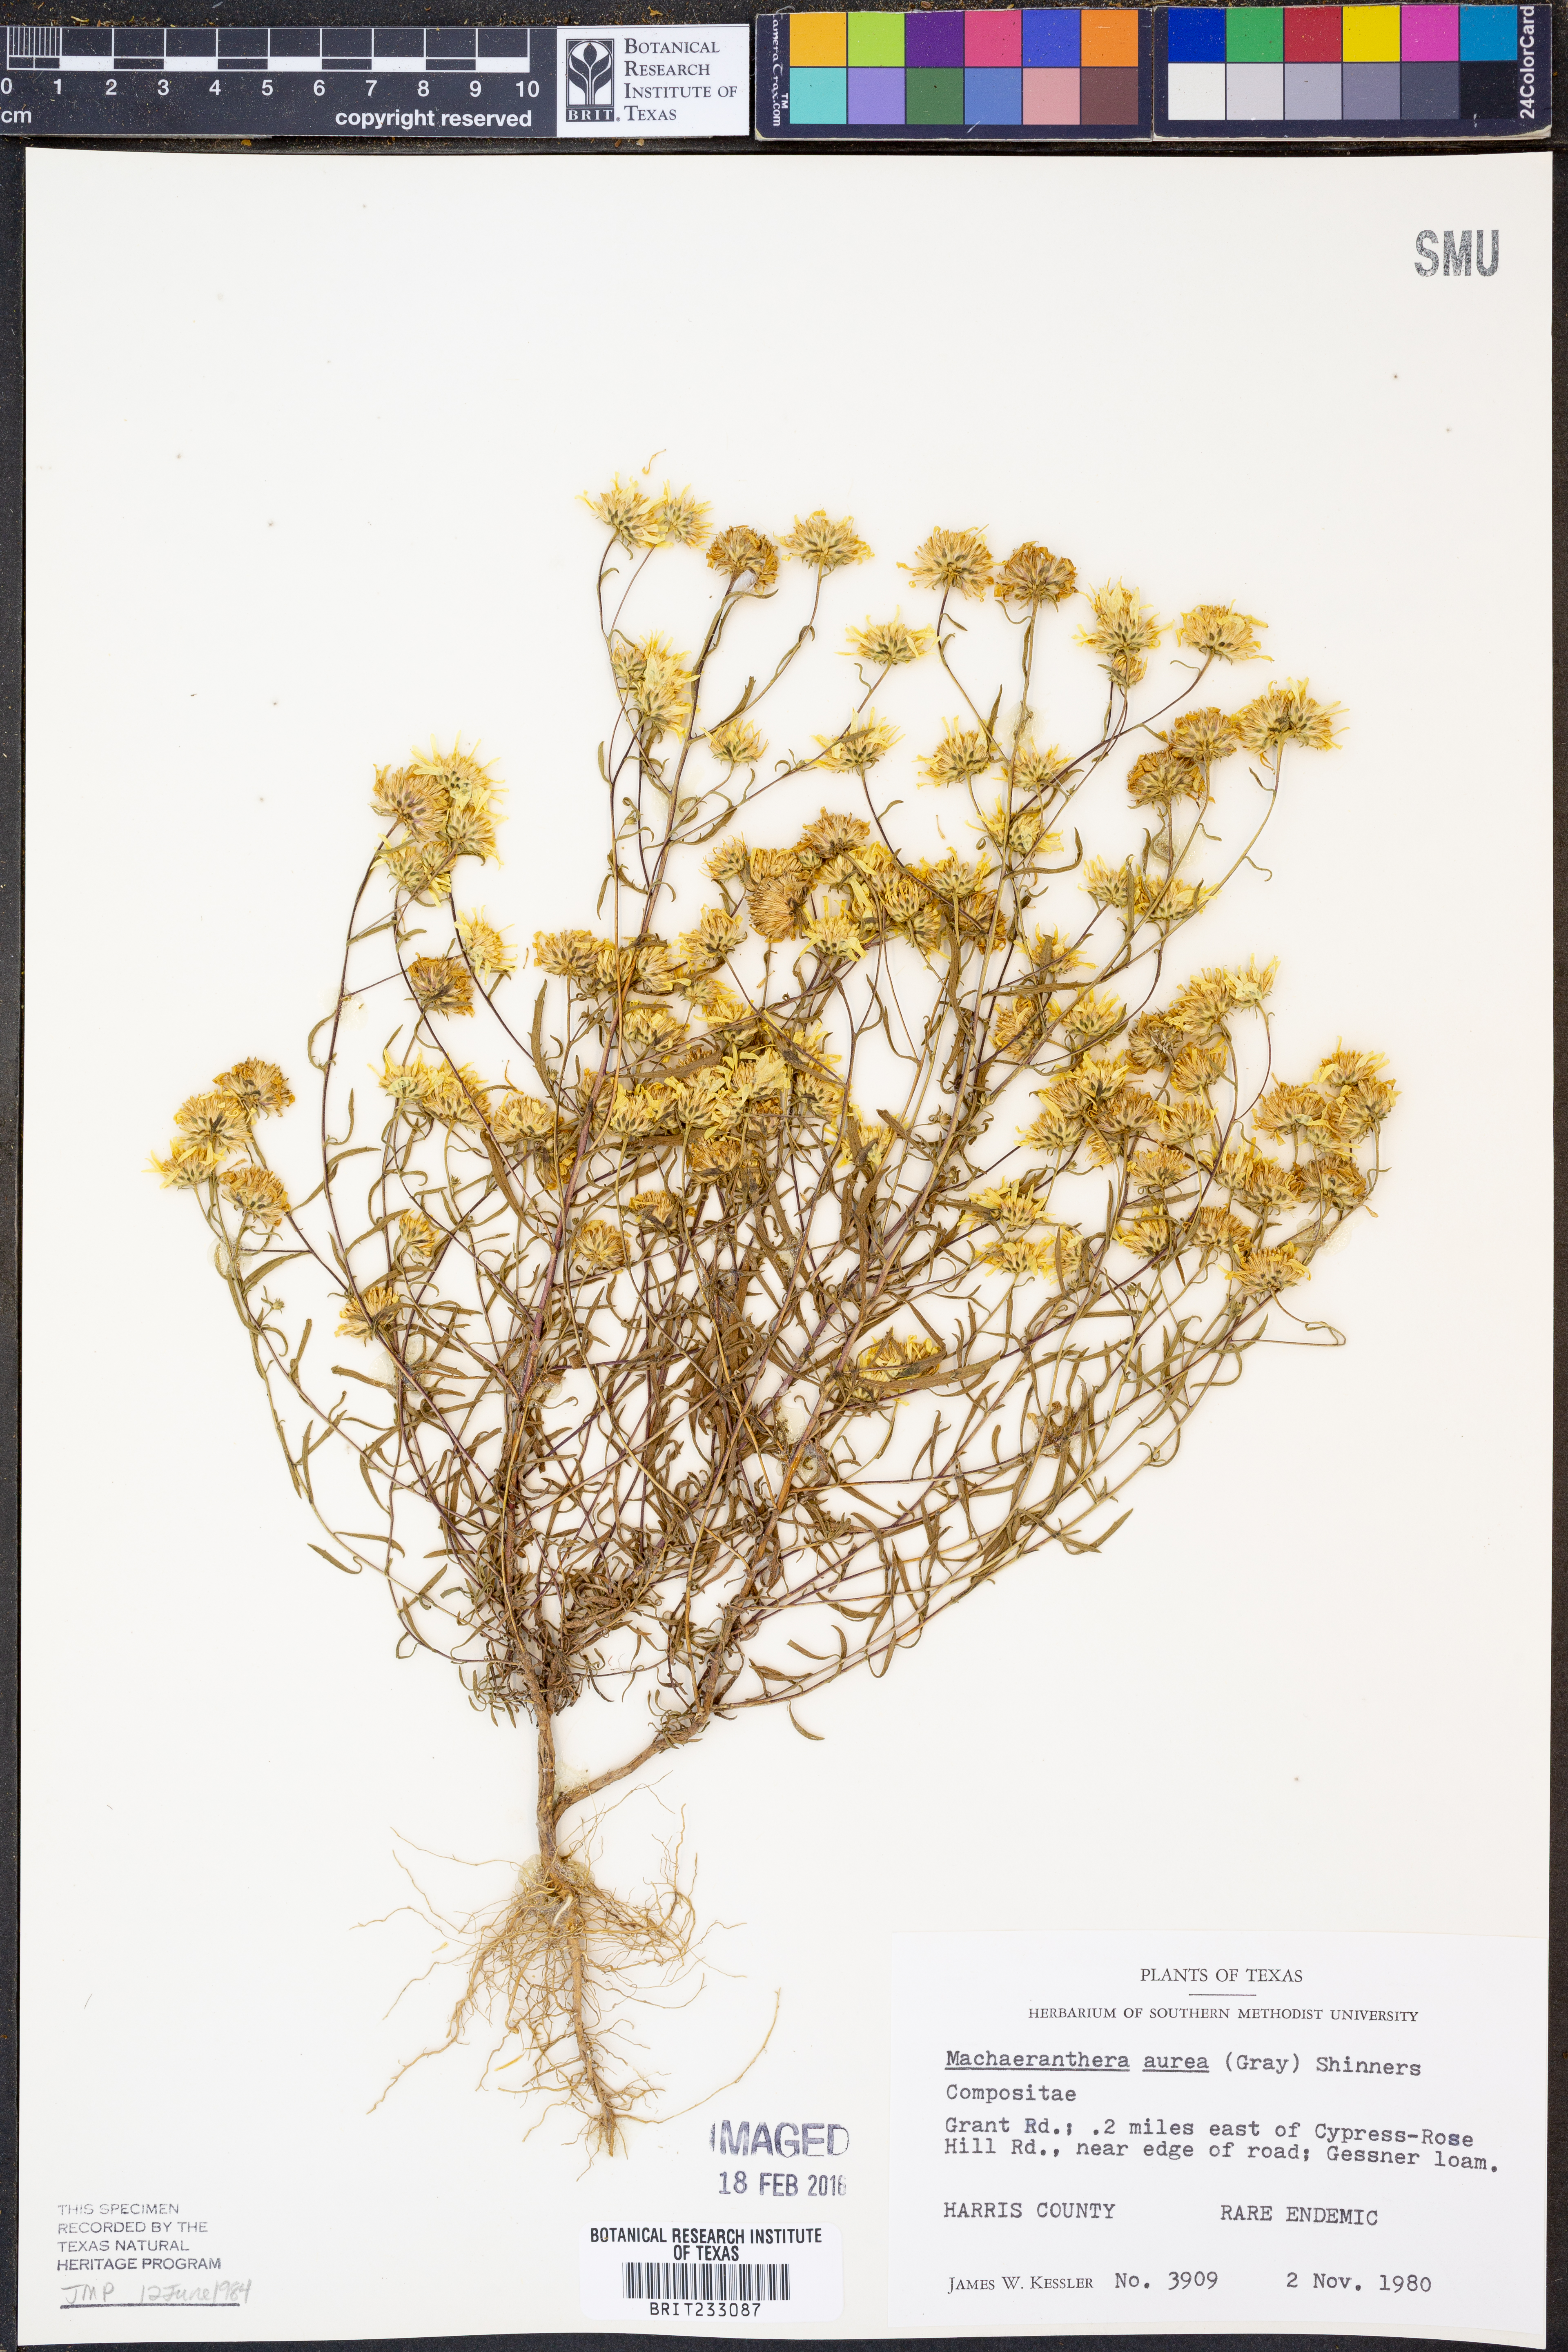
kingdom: Plantae
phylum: Tracheophyta
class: Magnoliopsida
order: Asterales
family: Asteraceae
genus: Rayjacksonia
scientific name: Rayjacksonia aurea
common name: Houston camphor daisy
